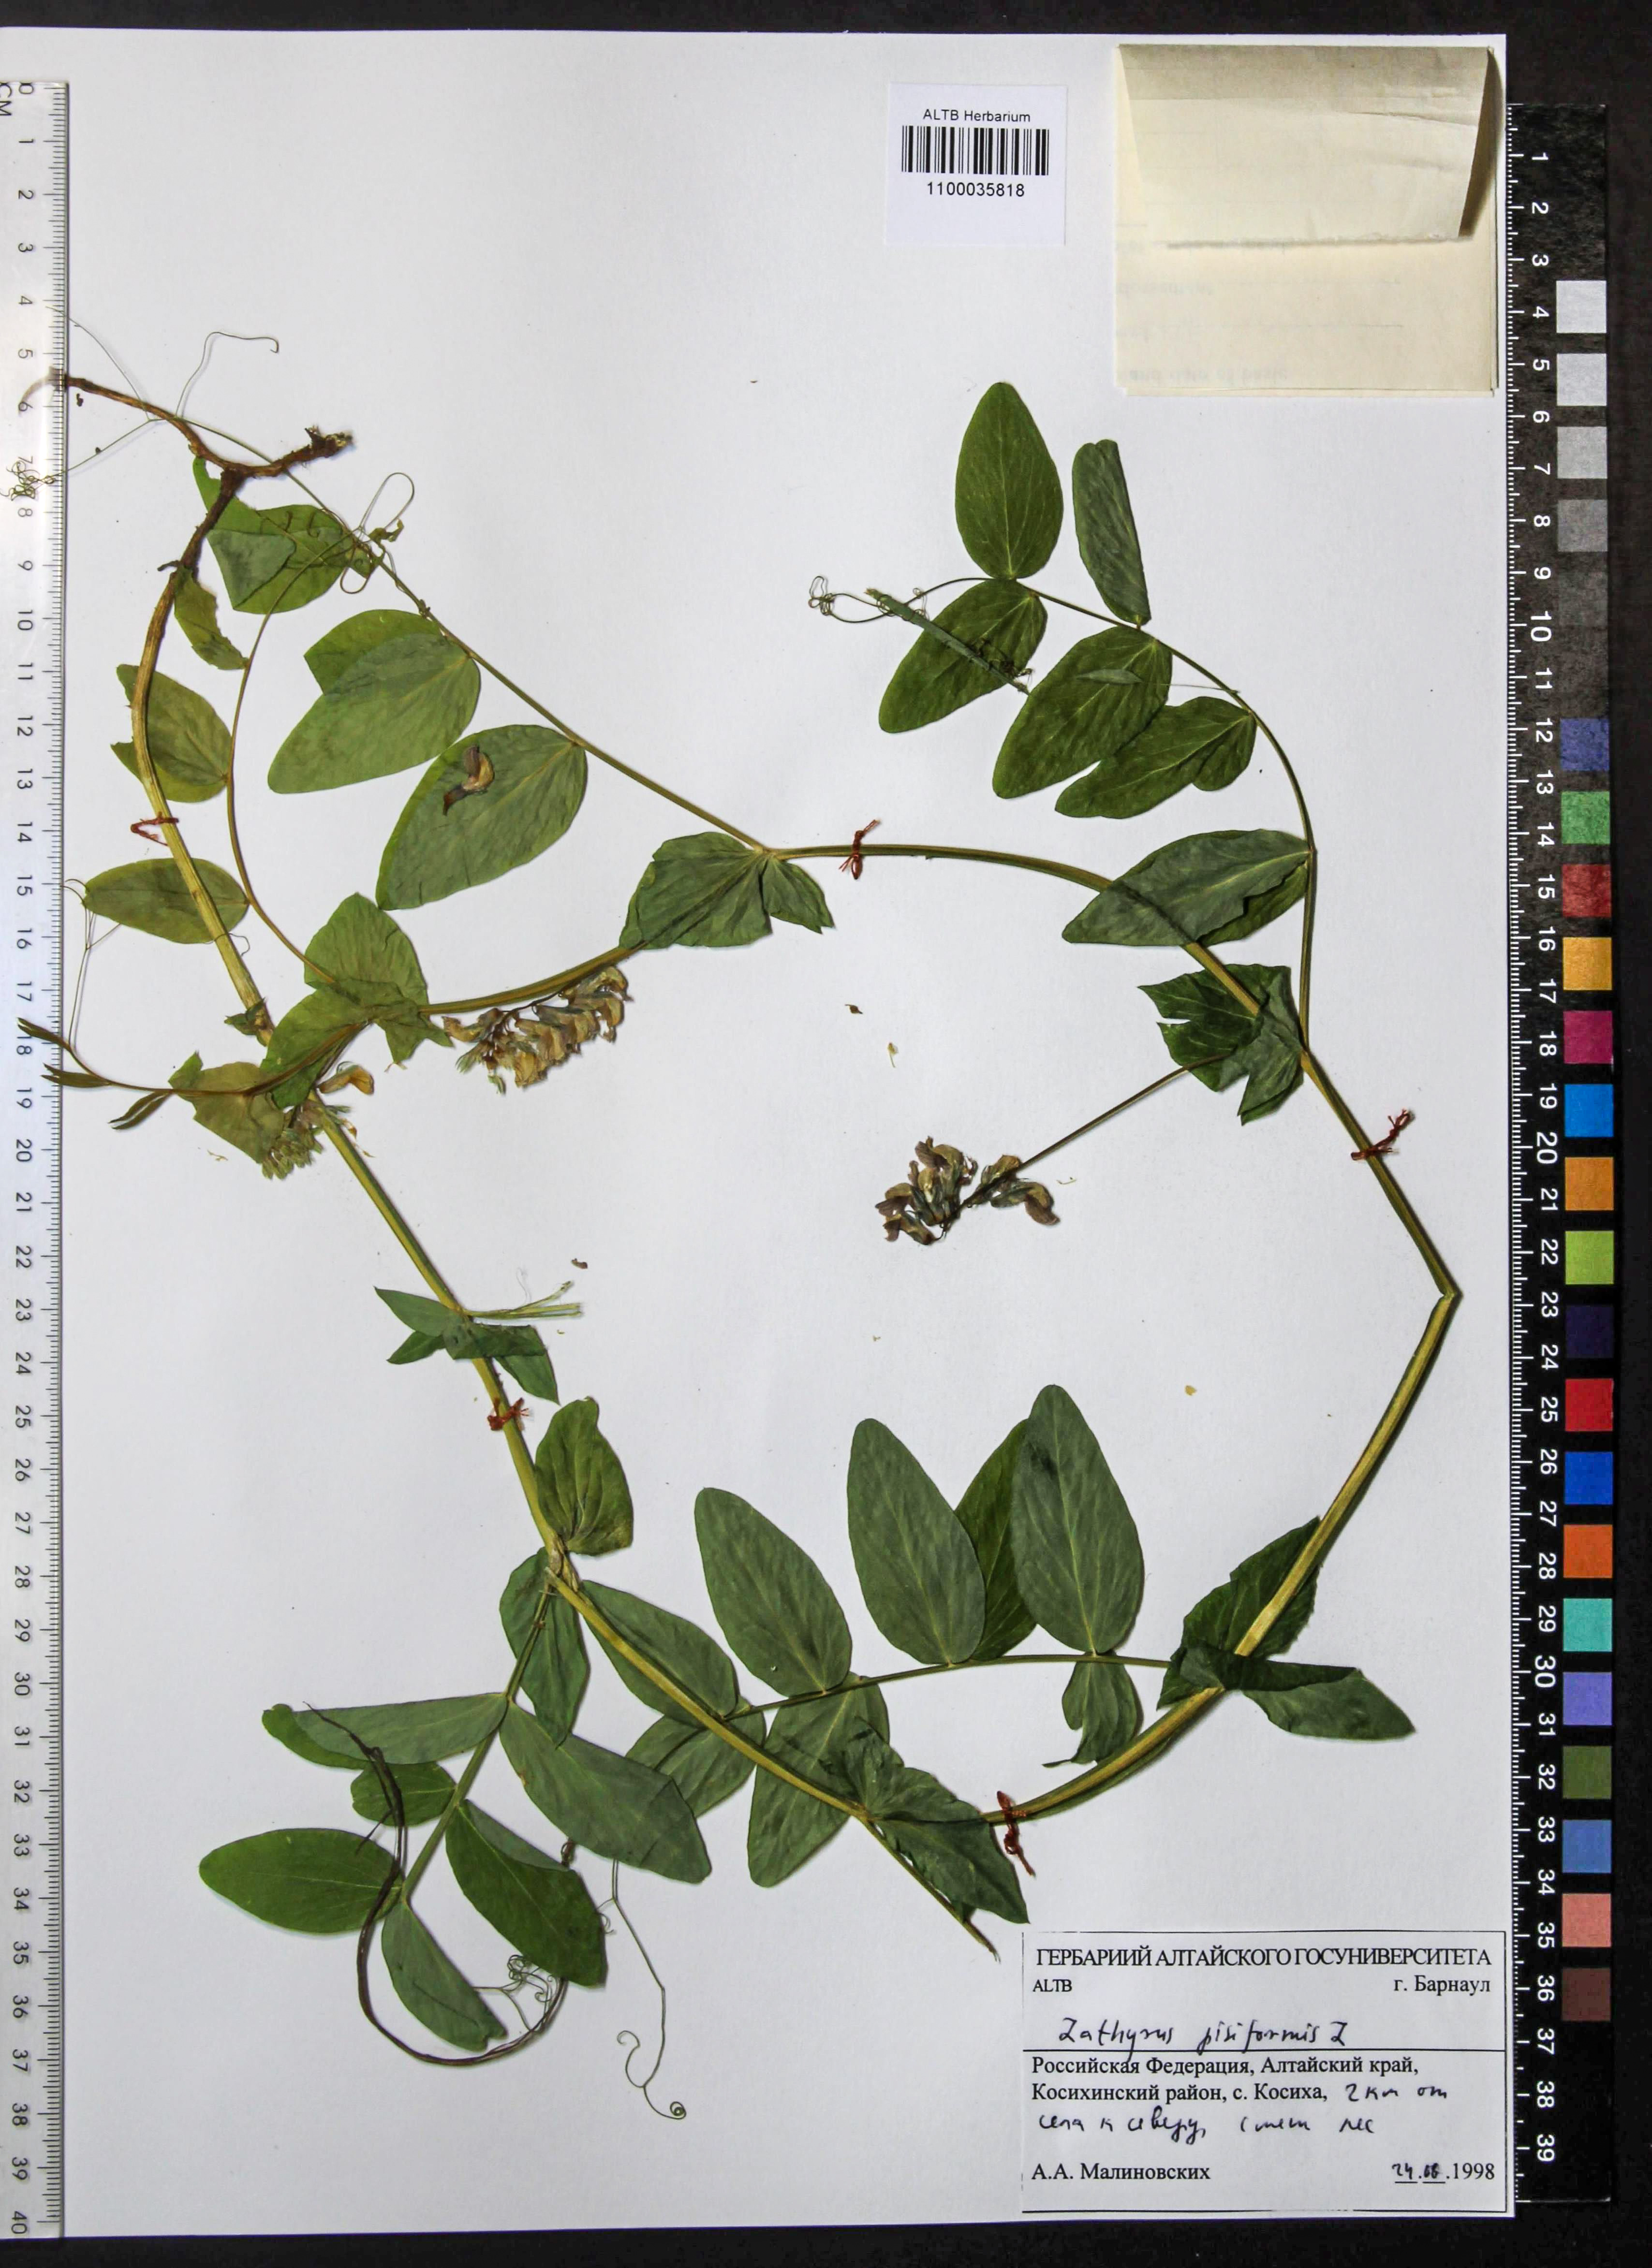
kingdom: Plantae
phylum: Tracheophyta
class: Magnoliopsida
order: Fabales
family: Fabaceae
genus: Lathyrus
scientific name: Lathyrus pisiformis
